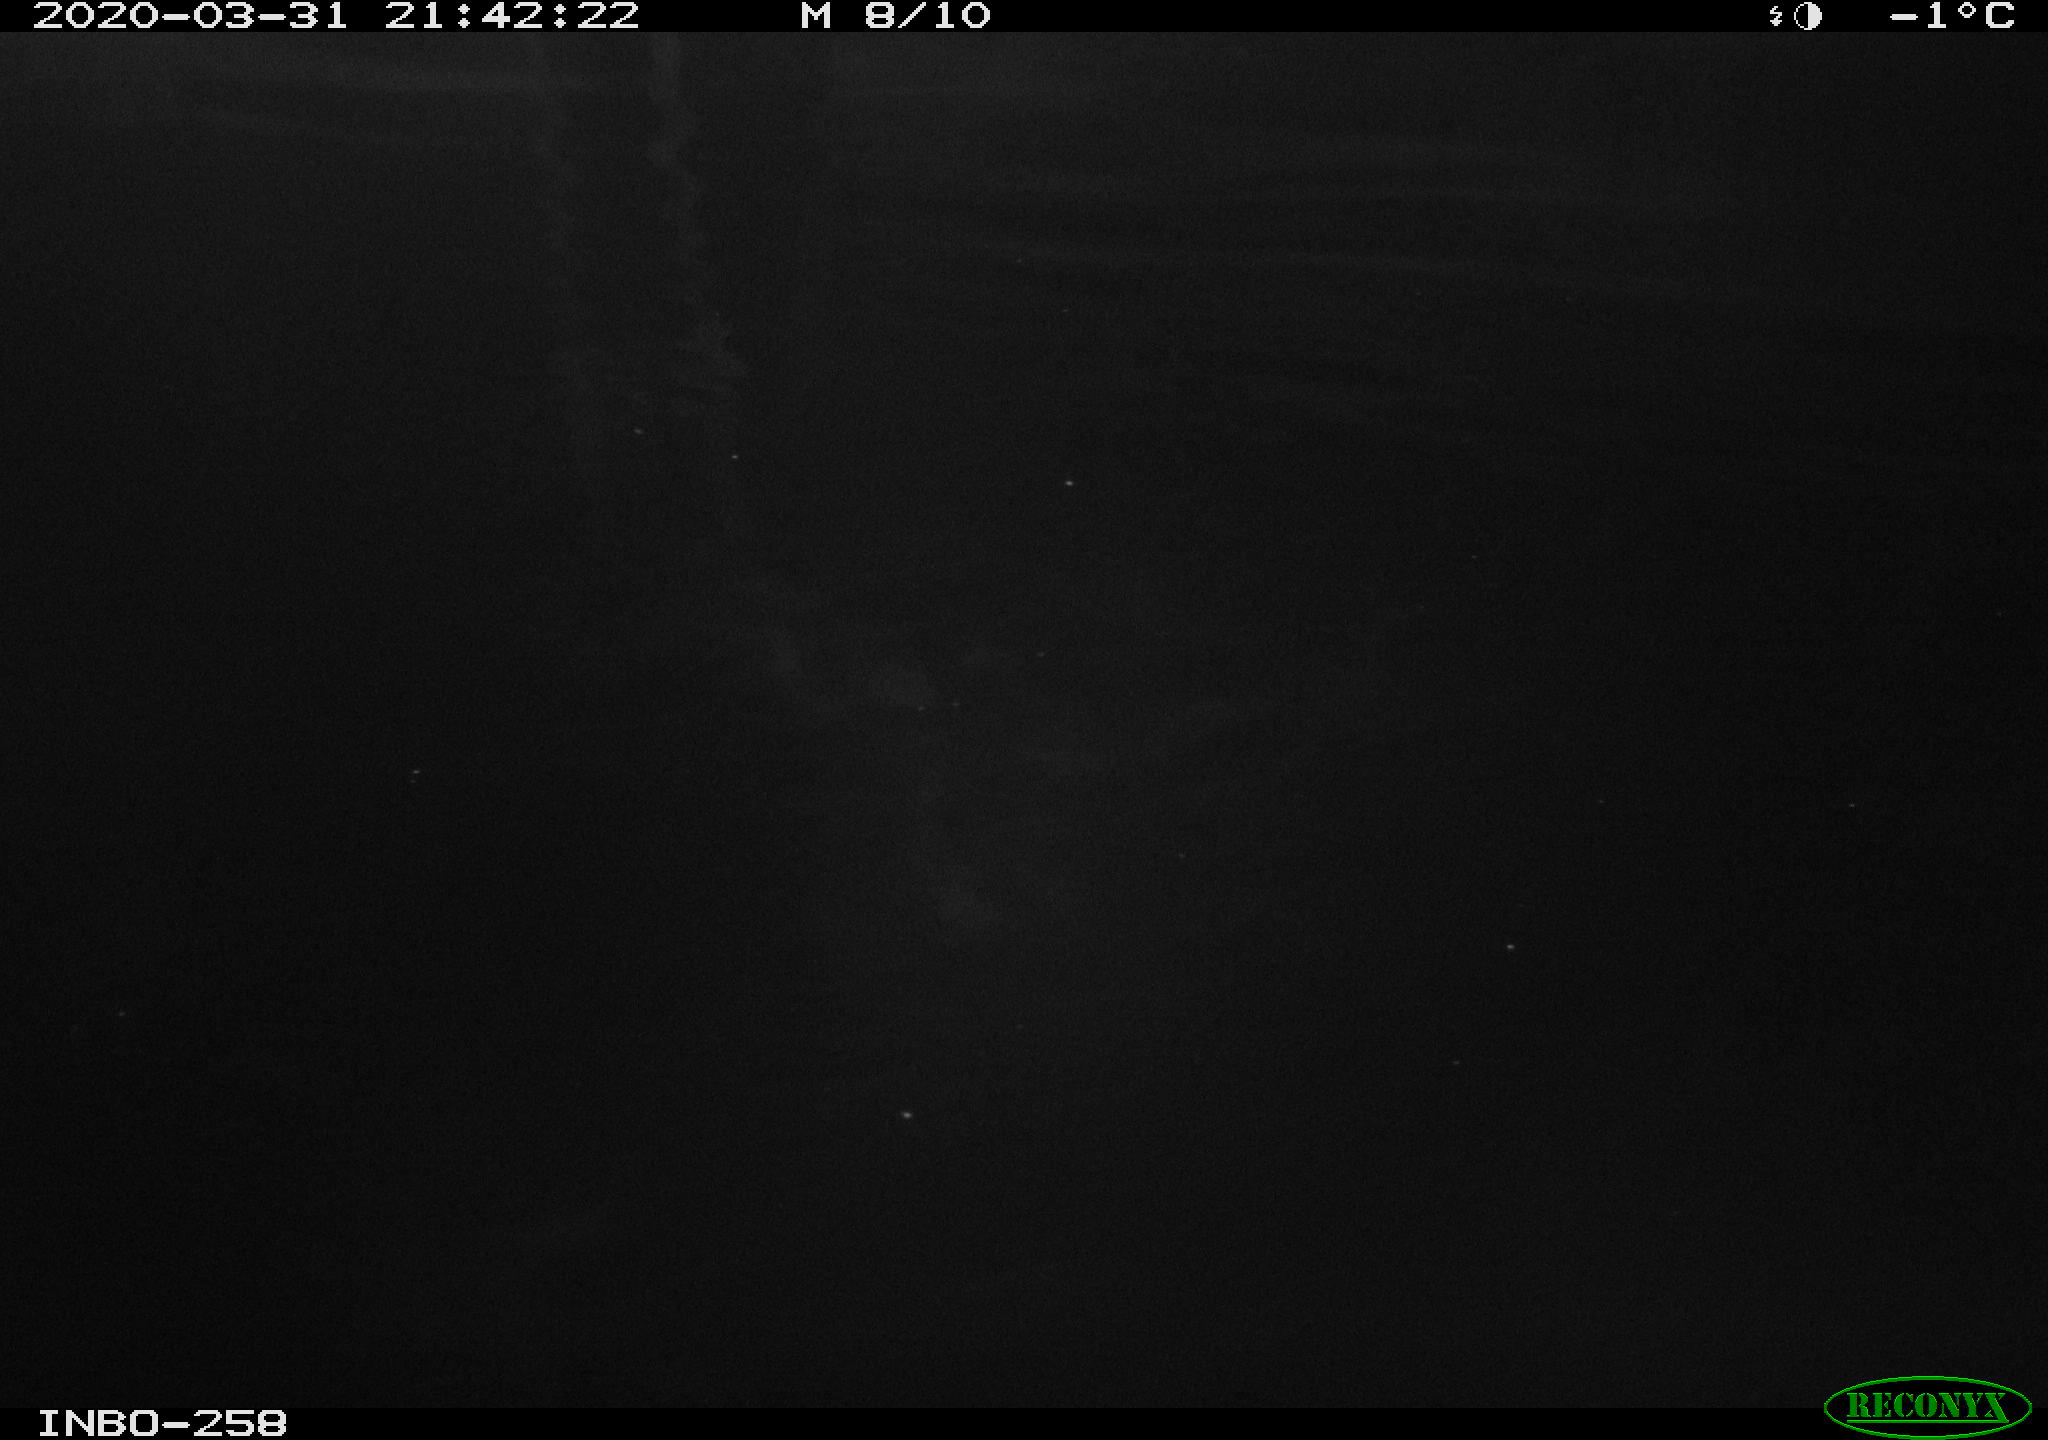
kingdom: Animalia
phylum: Chordata
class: Aves
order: Anseriformes
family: Anatidae
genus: Anas
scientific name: Anas platyrhynchos
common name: Mallard
